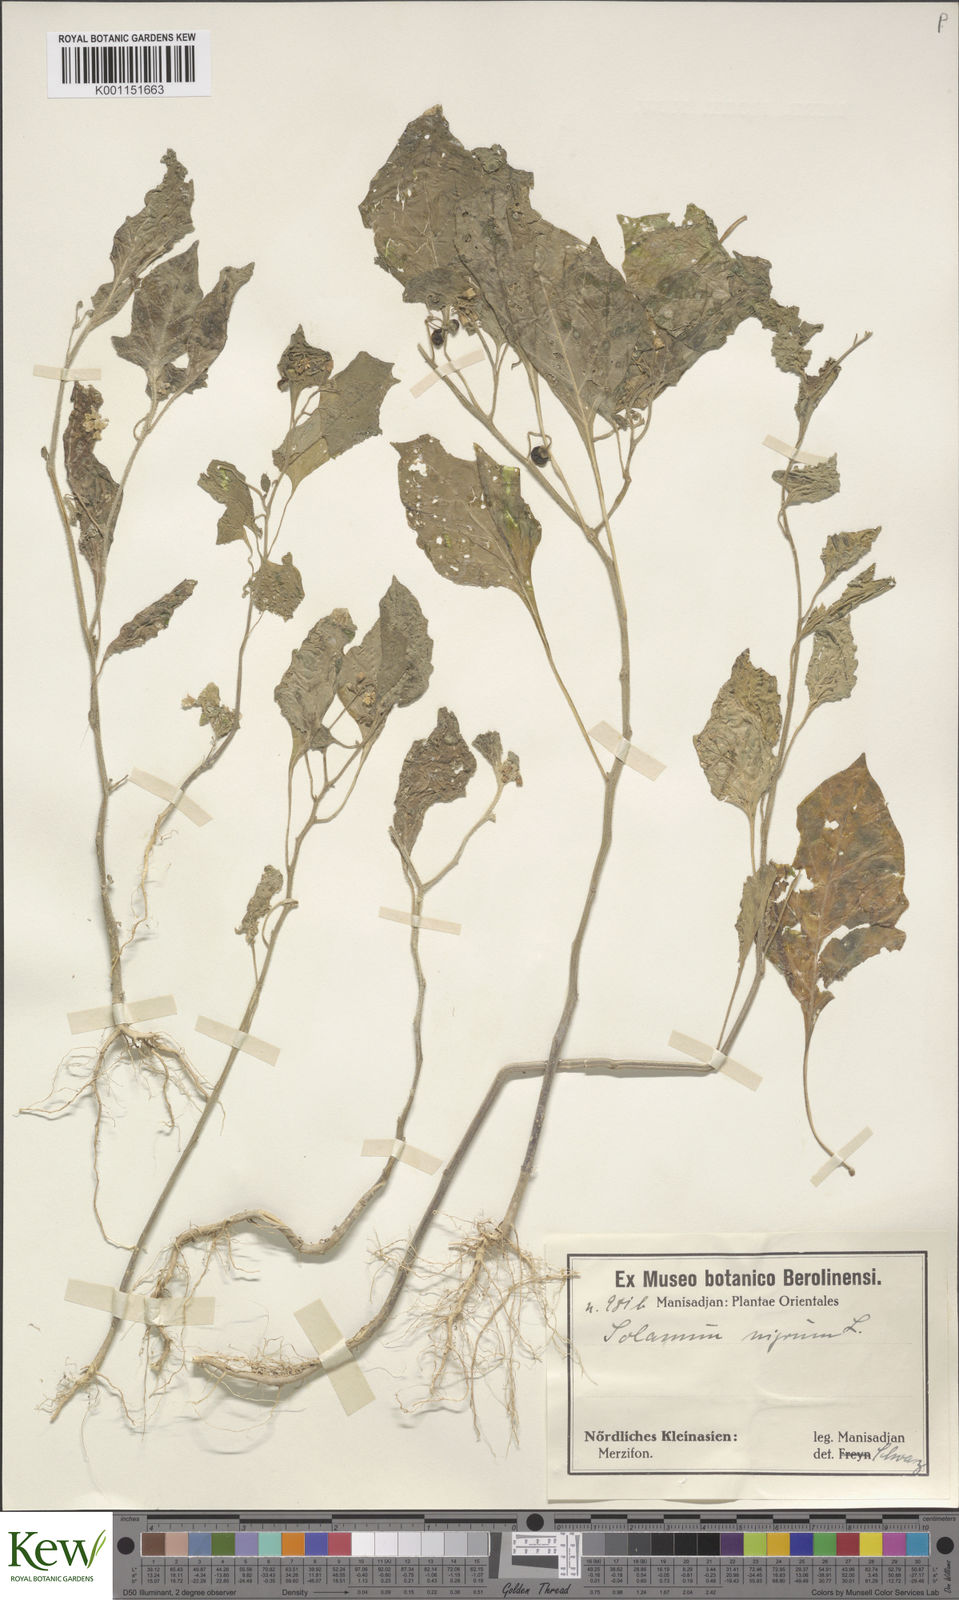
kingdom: Plantae
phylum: Tracheophyta
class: Magnoliopsida
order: Solanales
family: Solanaceae
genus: Solanum
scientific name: Solanum
